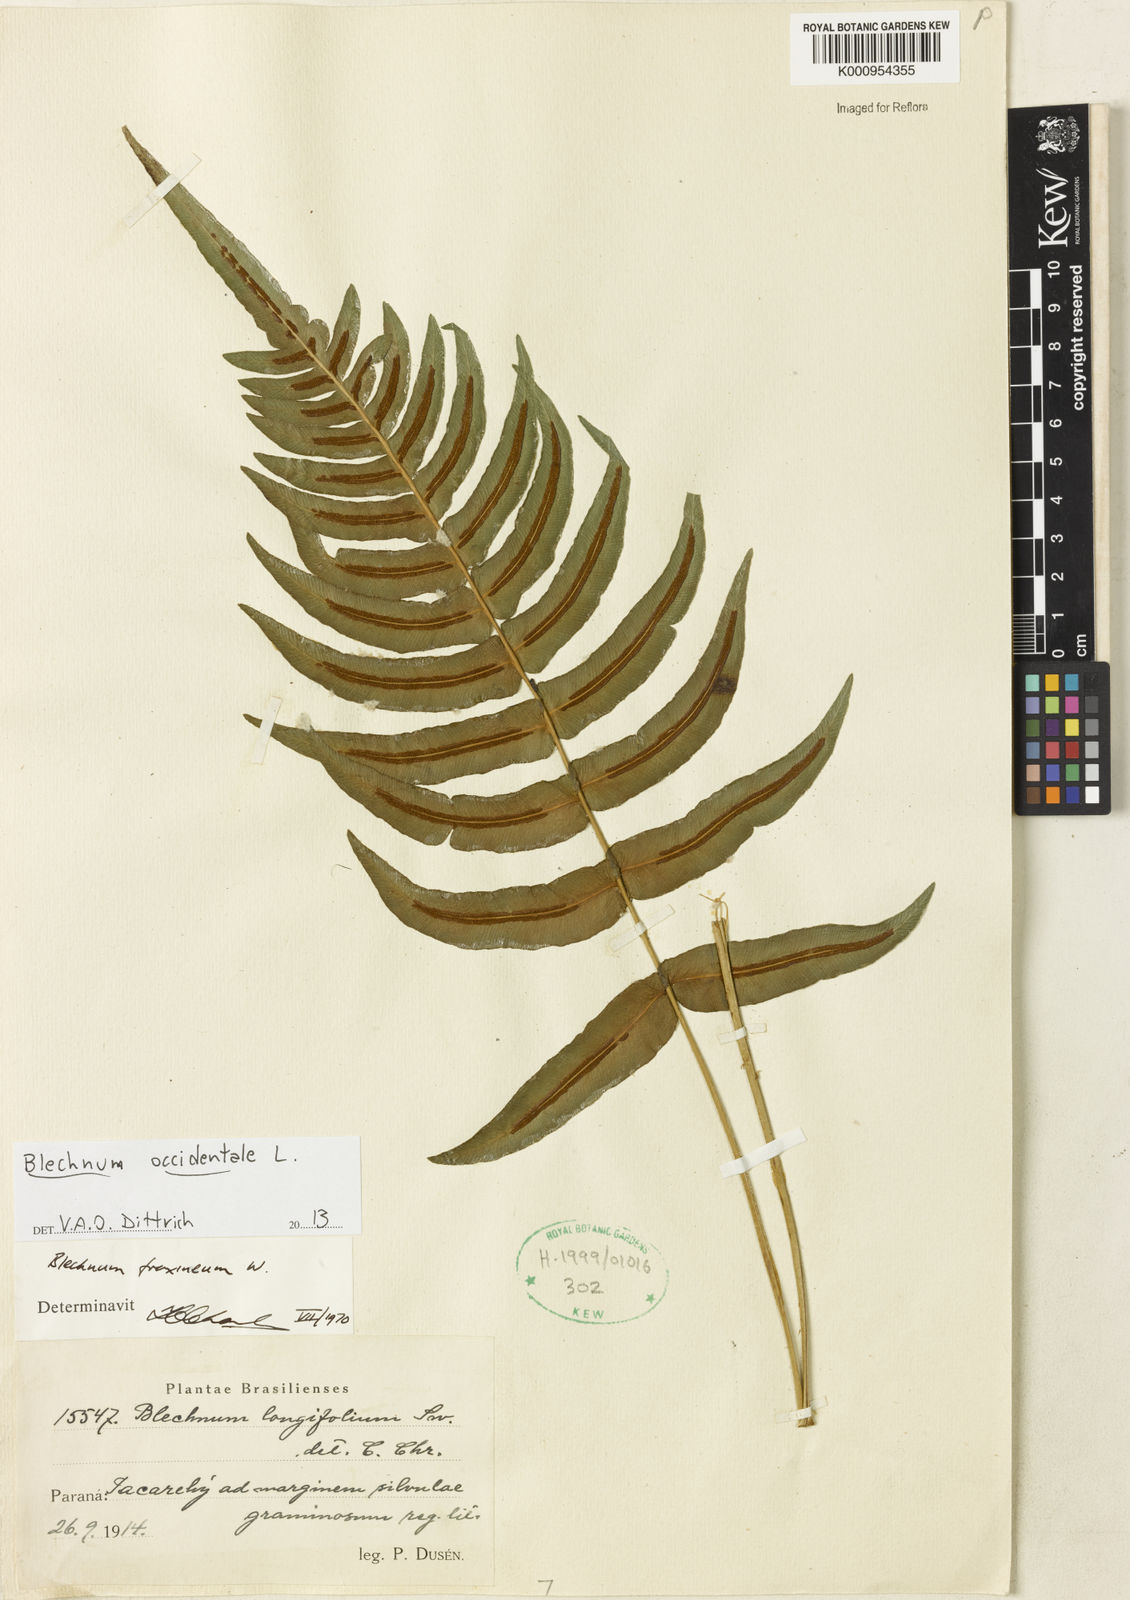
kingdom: Plantae
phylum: Tracheophyta
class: Polypodiopsida
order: Polypodiales
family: Blechnaceae
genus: Blechnum
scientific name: Blechnum gracile
